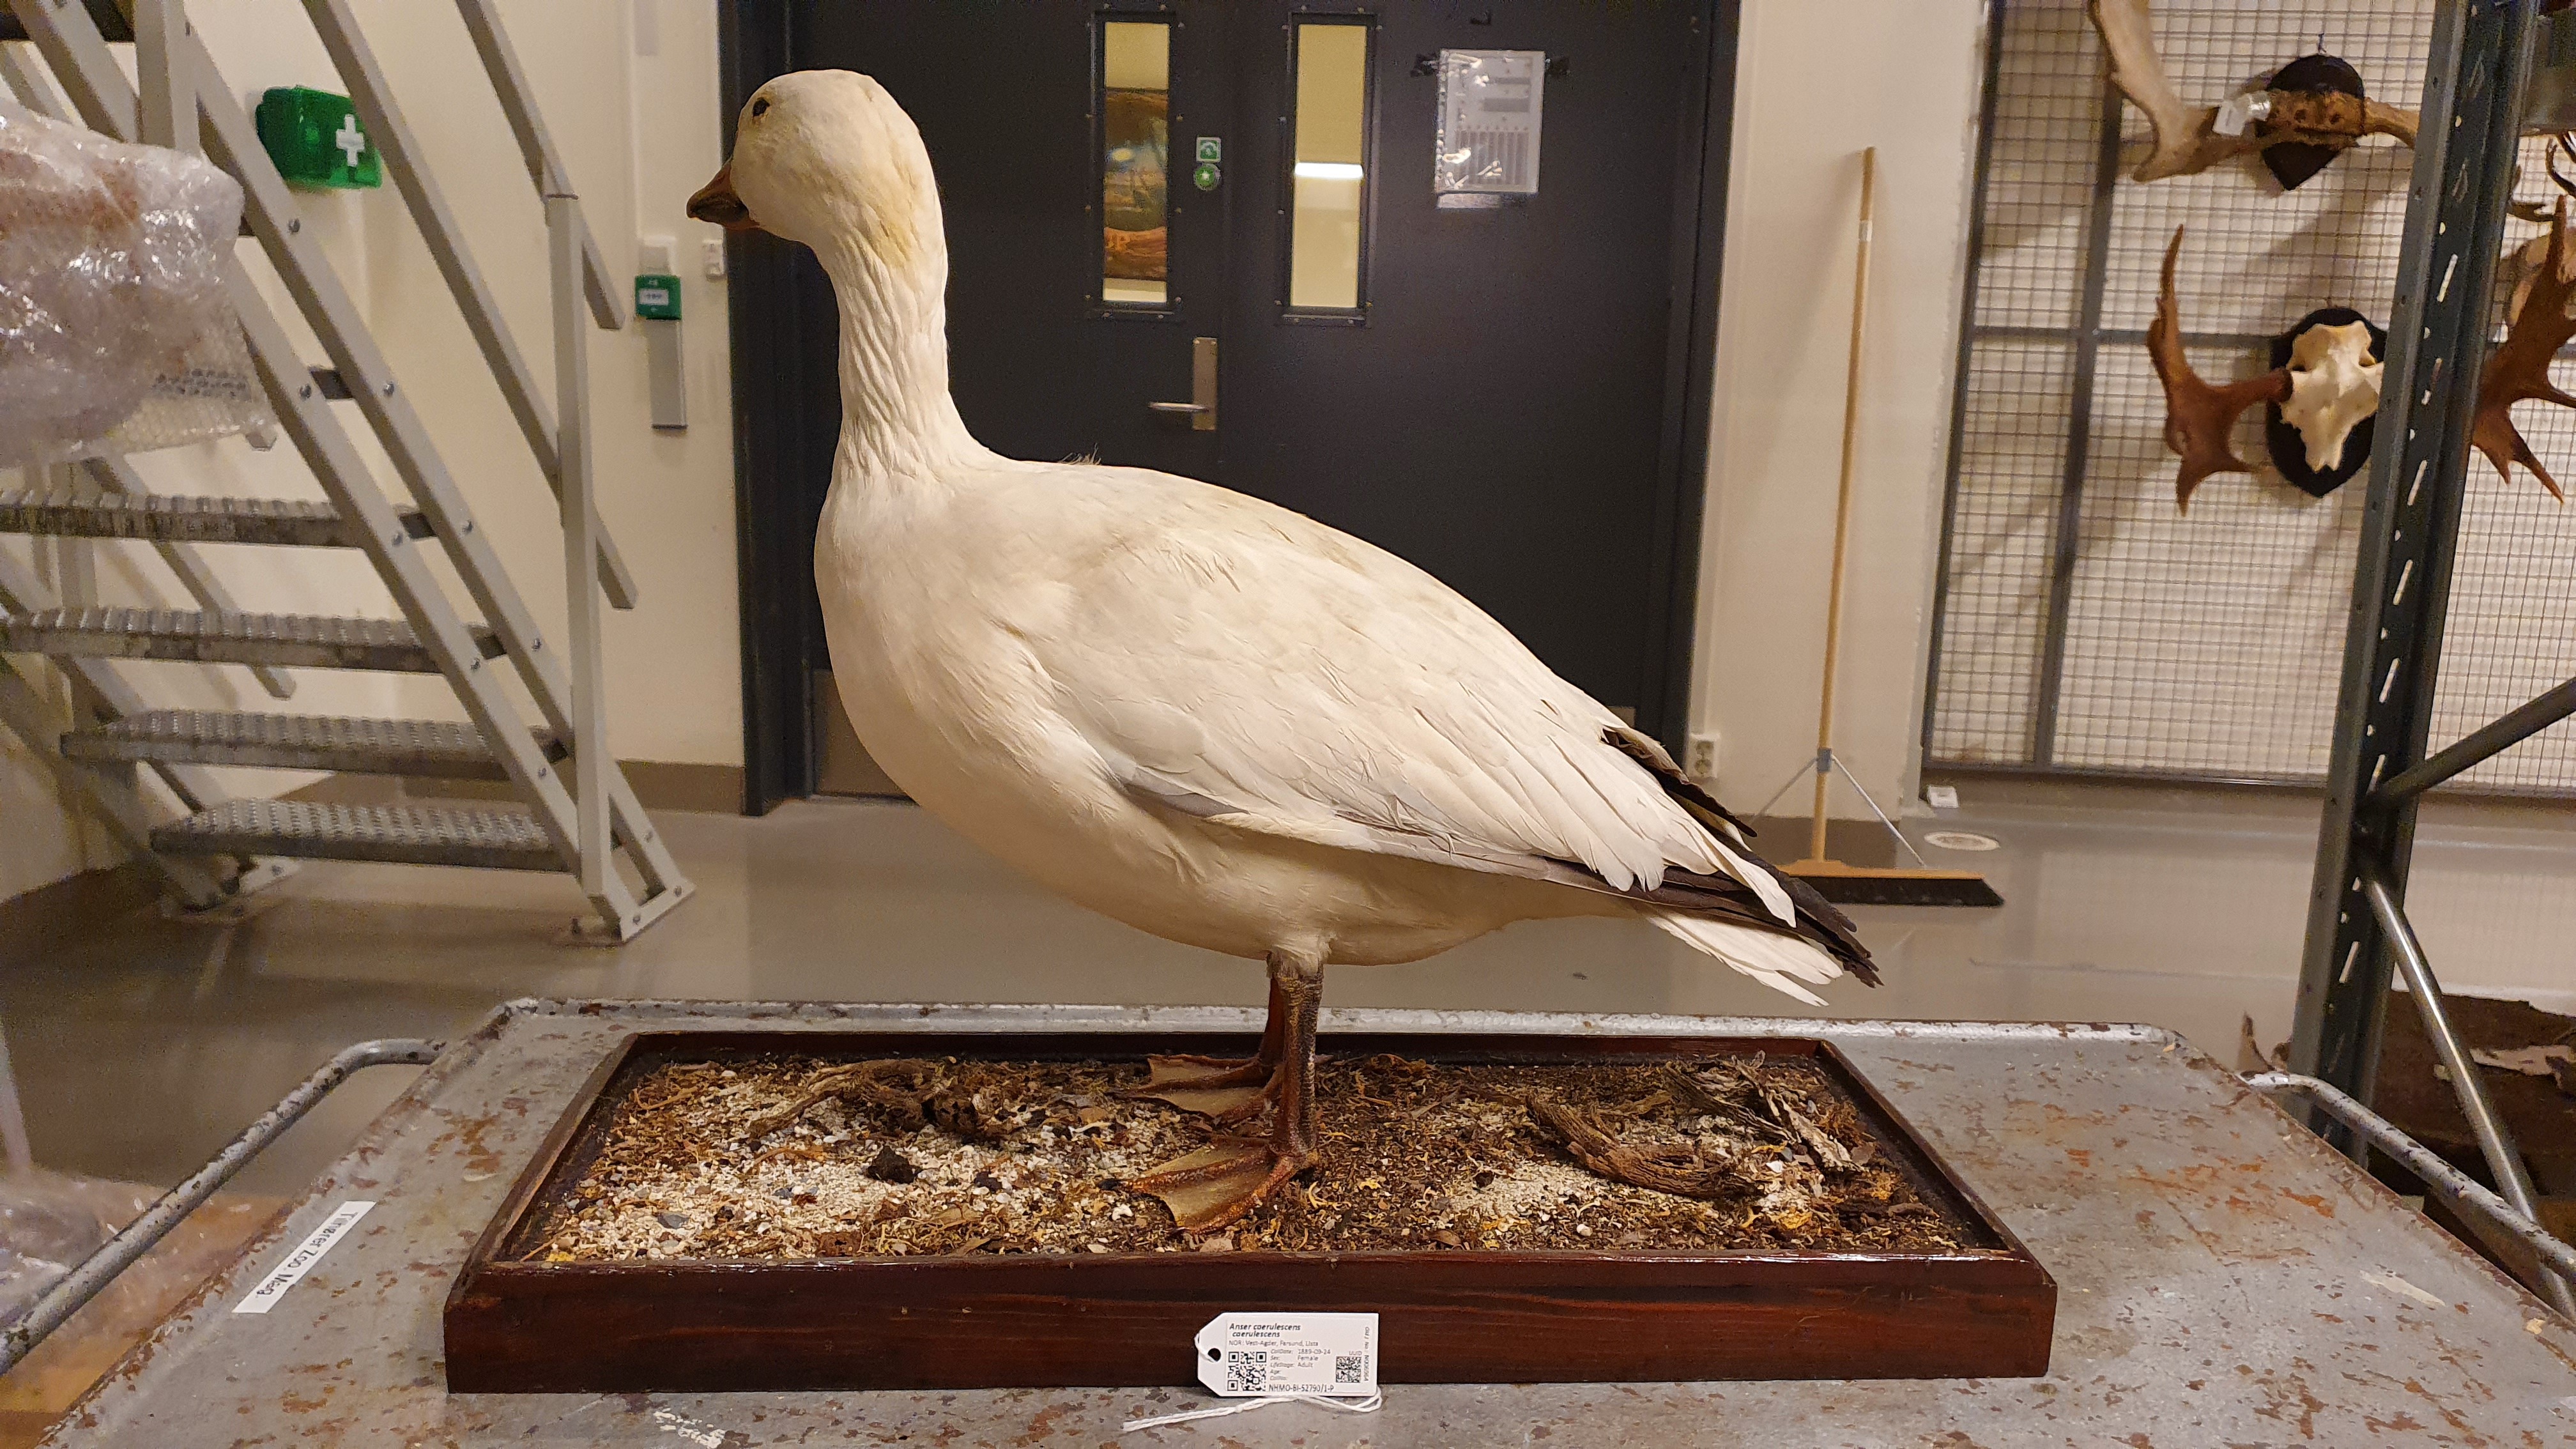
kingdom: Animalia
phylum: Chordata
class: Aves
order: Anseriformes
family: Anatidae
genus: Anser
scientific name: Anser caerulescens
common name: Snow goose
